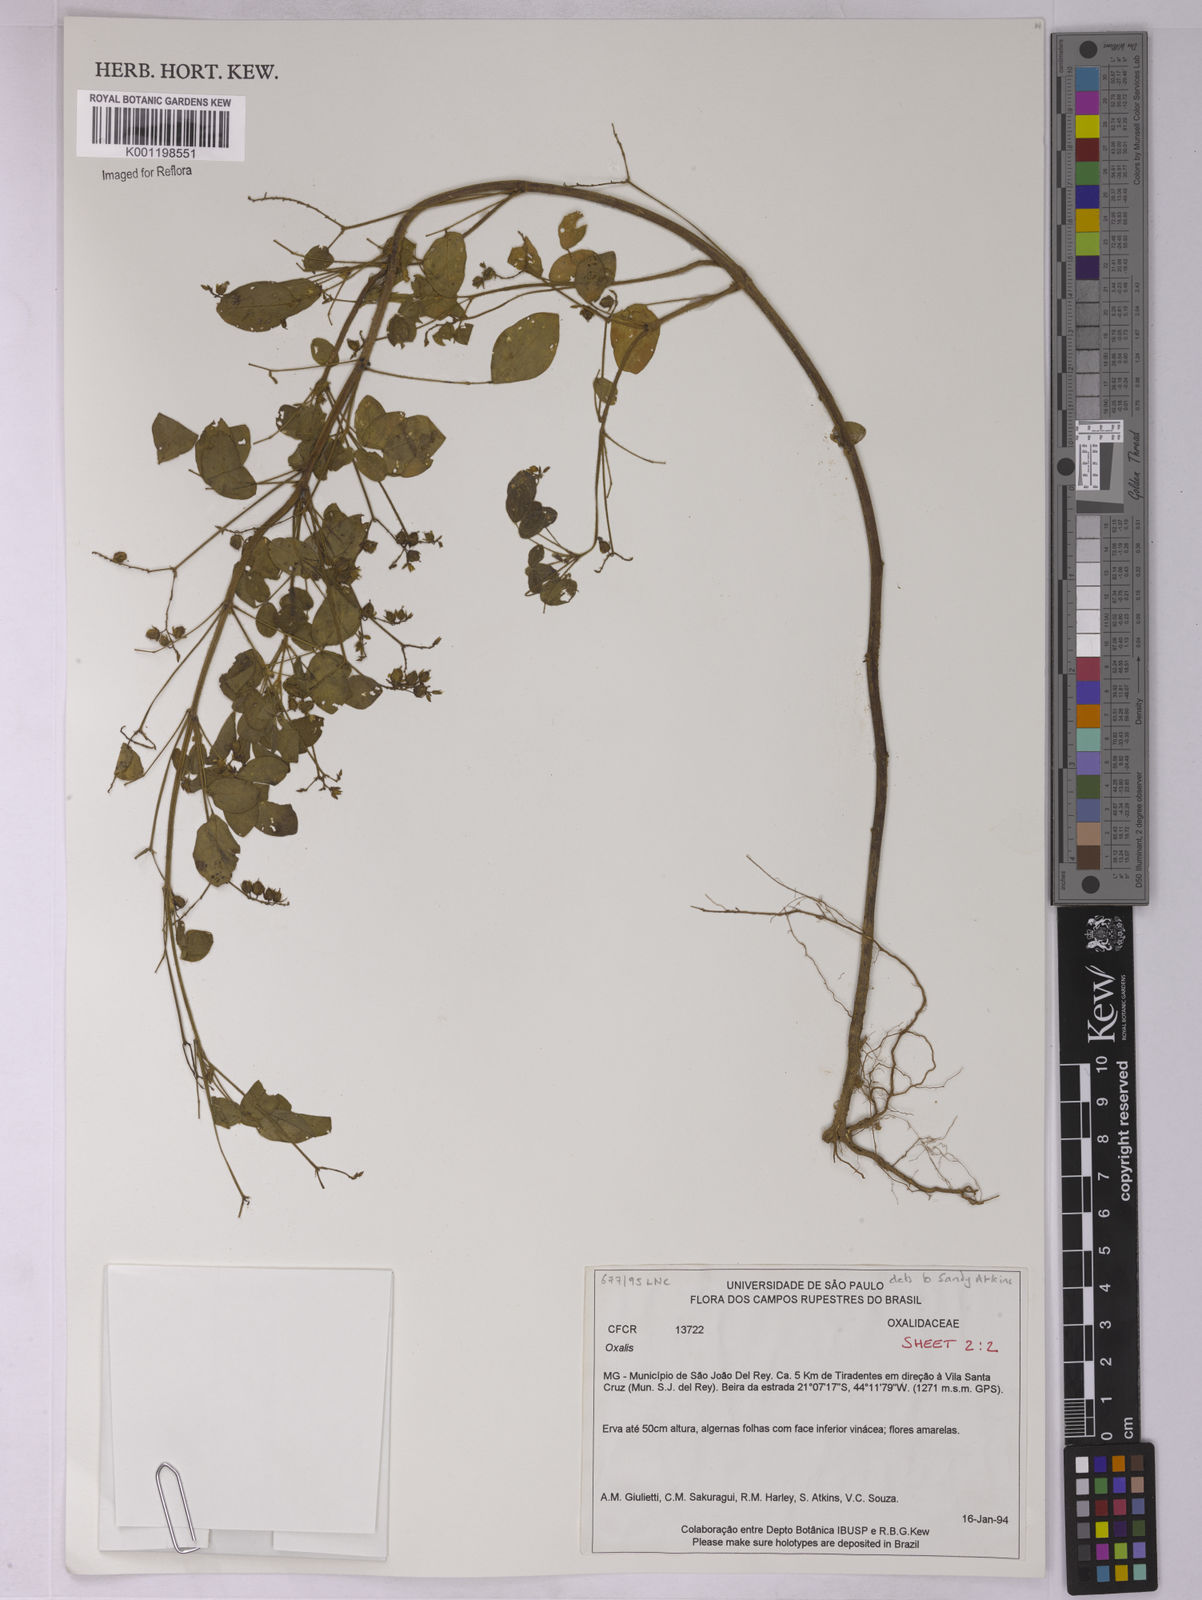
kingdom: Plantae
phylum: Tracheophyta
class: Magnoliopsida
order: Oxalidales
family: Oxalidaceae
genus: Oxalis
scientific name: Oxalis
